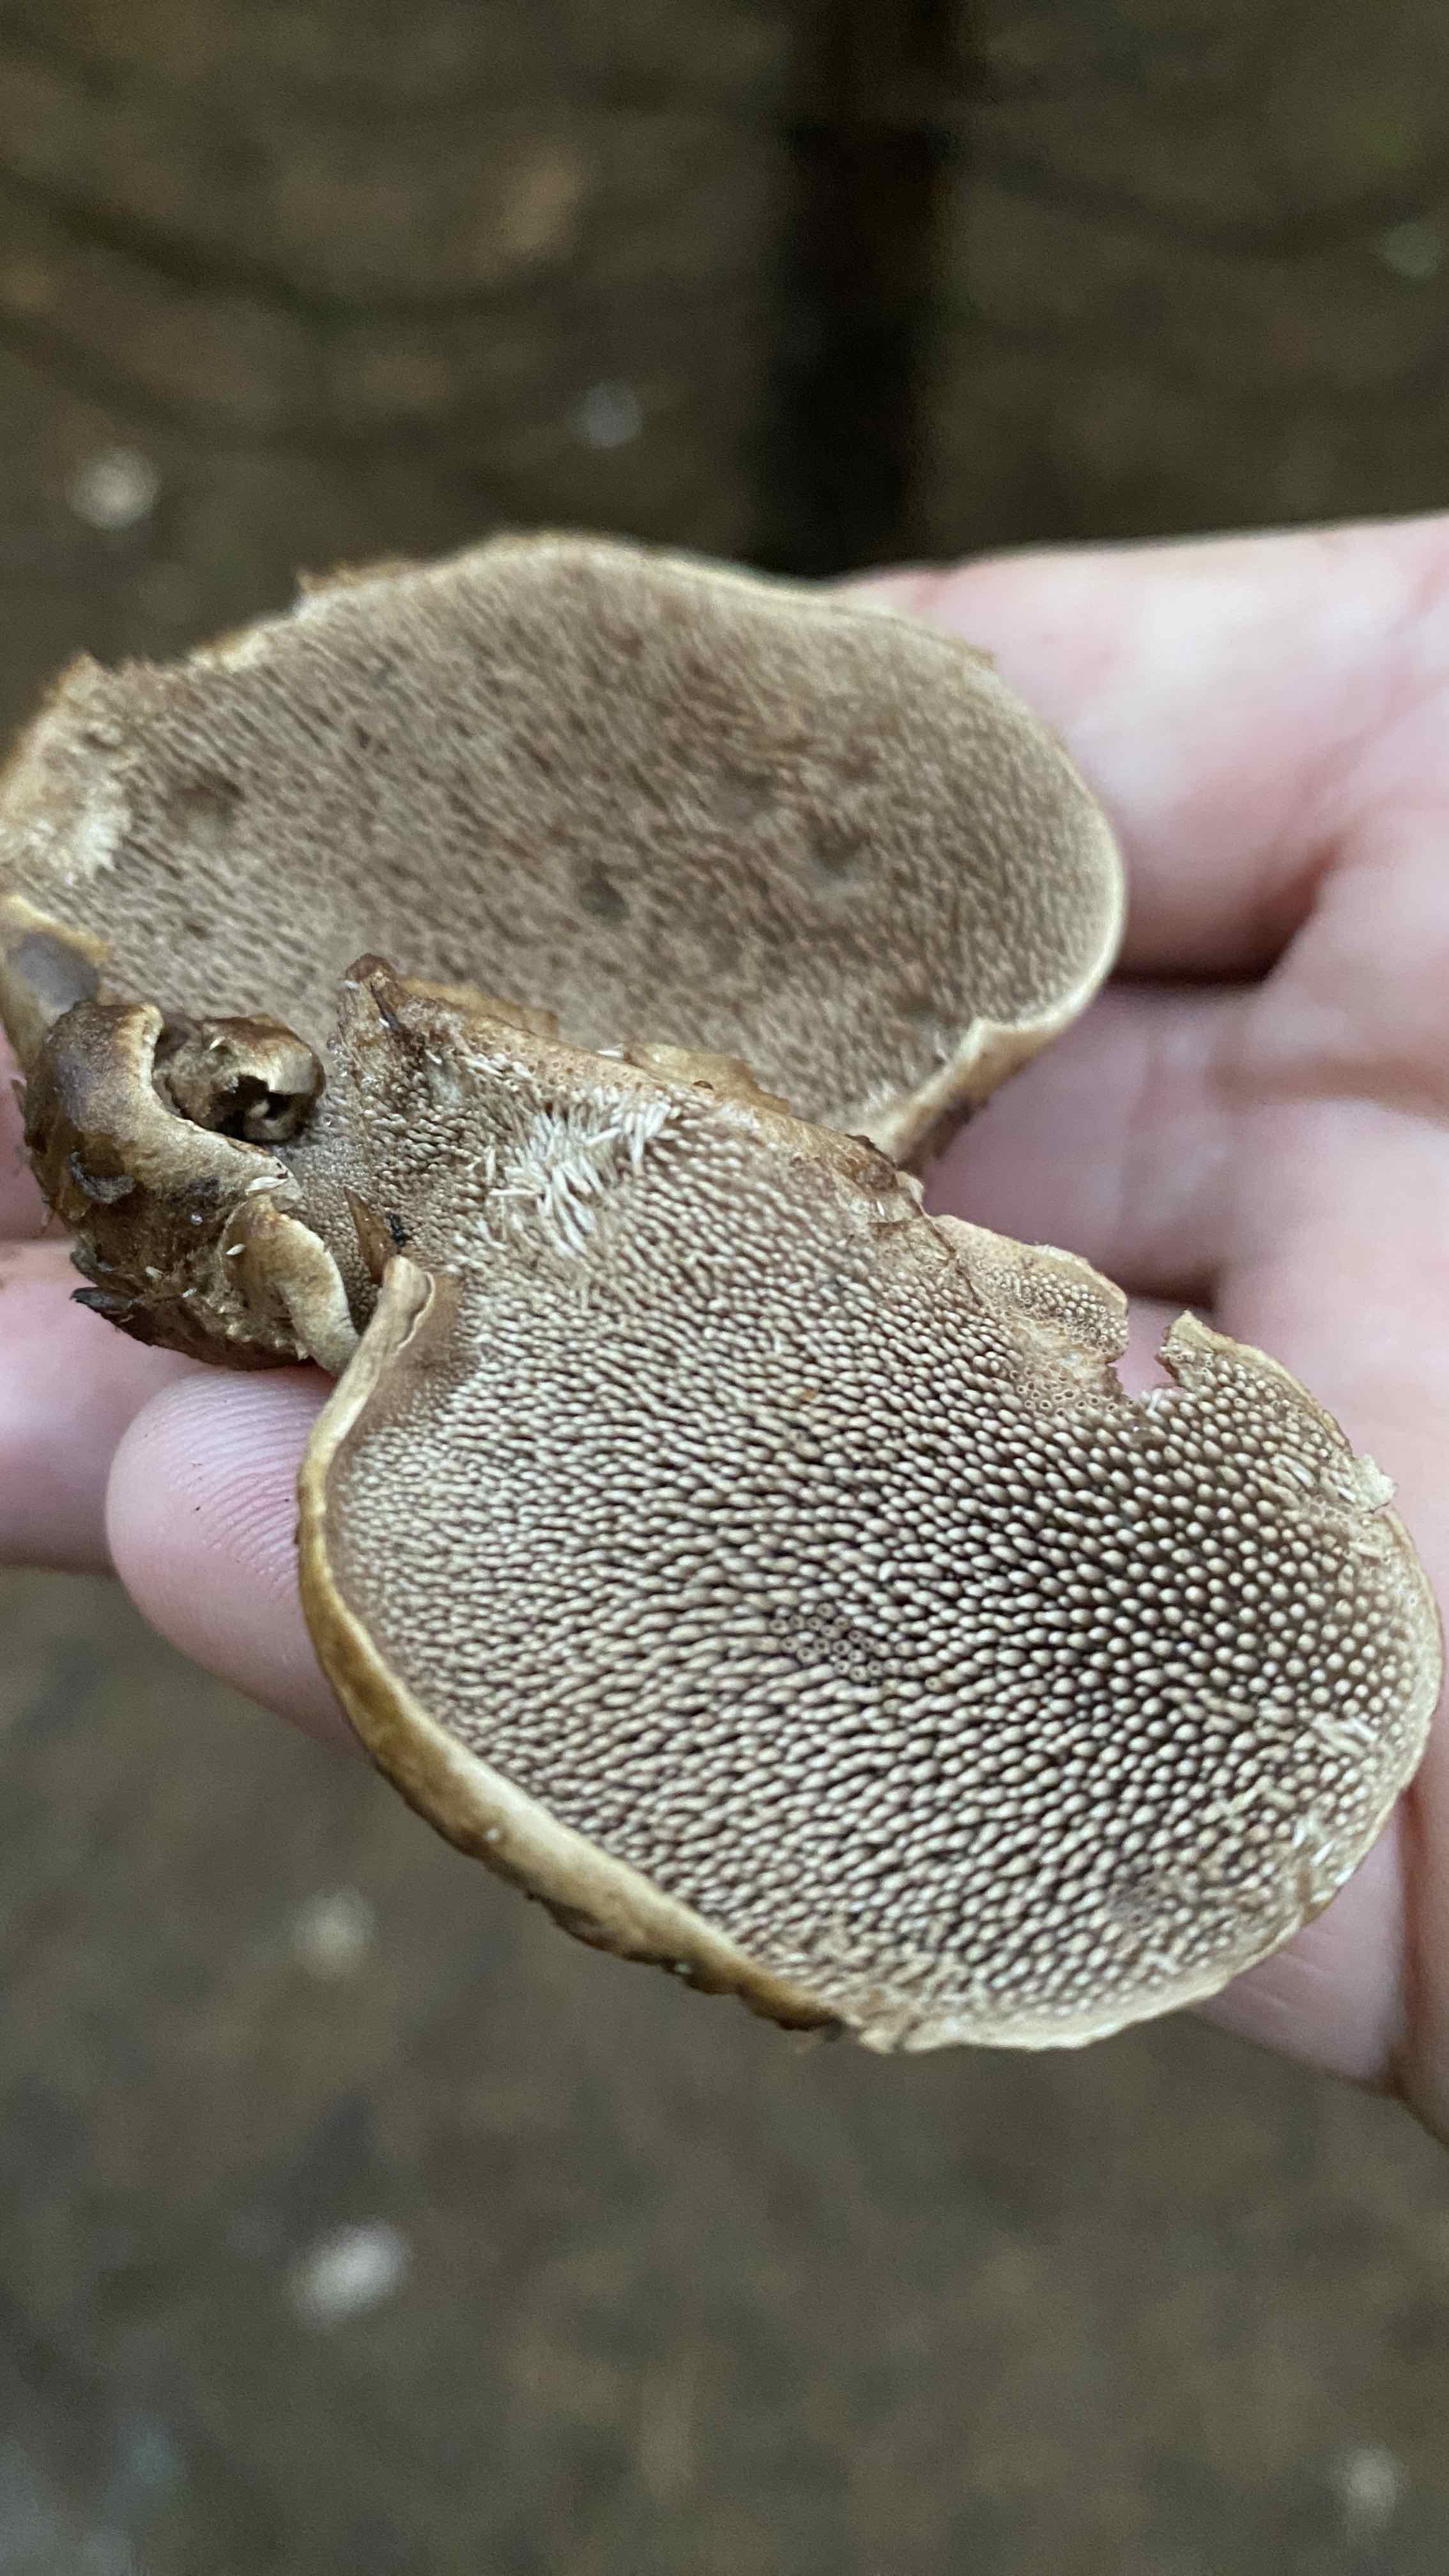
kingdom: Fungi
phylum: Basidiomycota
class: Agaricomycetes
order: Thelephorales
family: Bankeraceae
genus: Sarcodon
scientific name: Sarcodon imbricatus
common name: skællet kødpigsvamp
